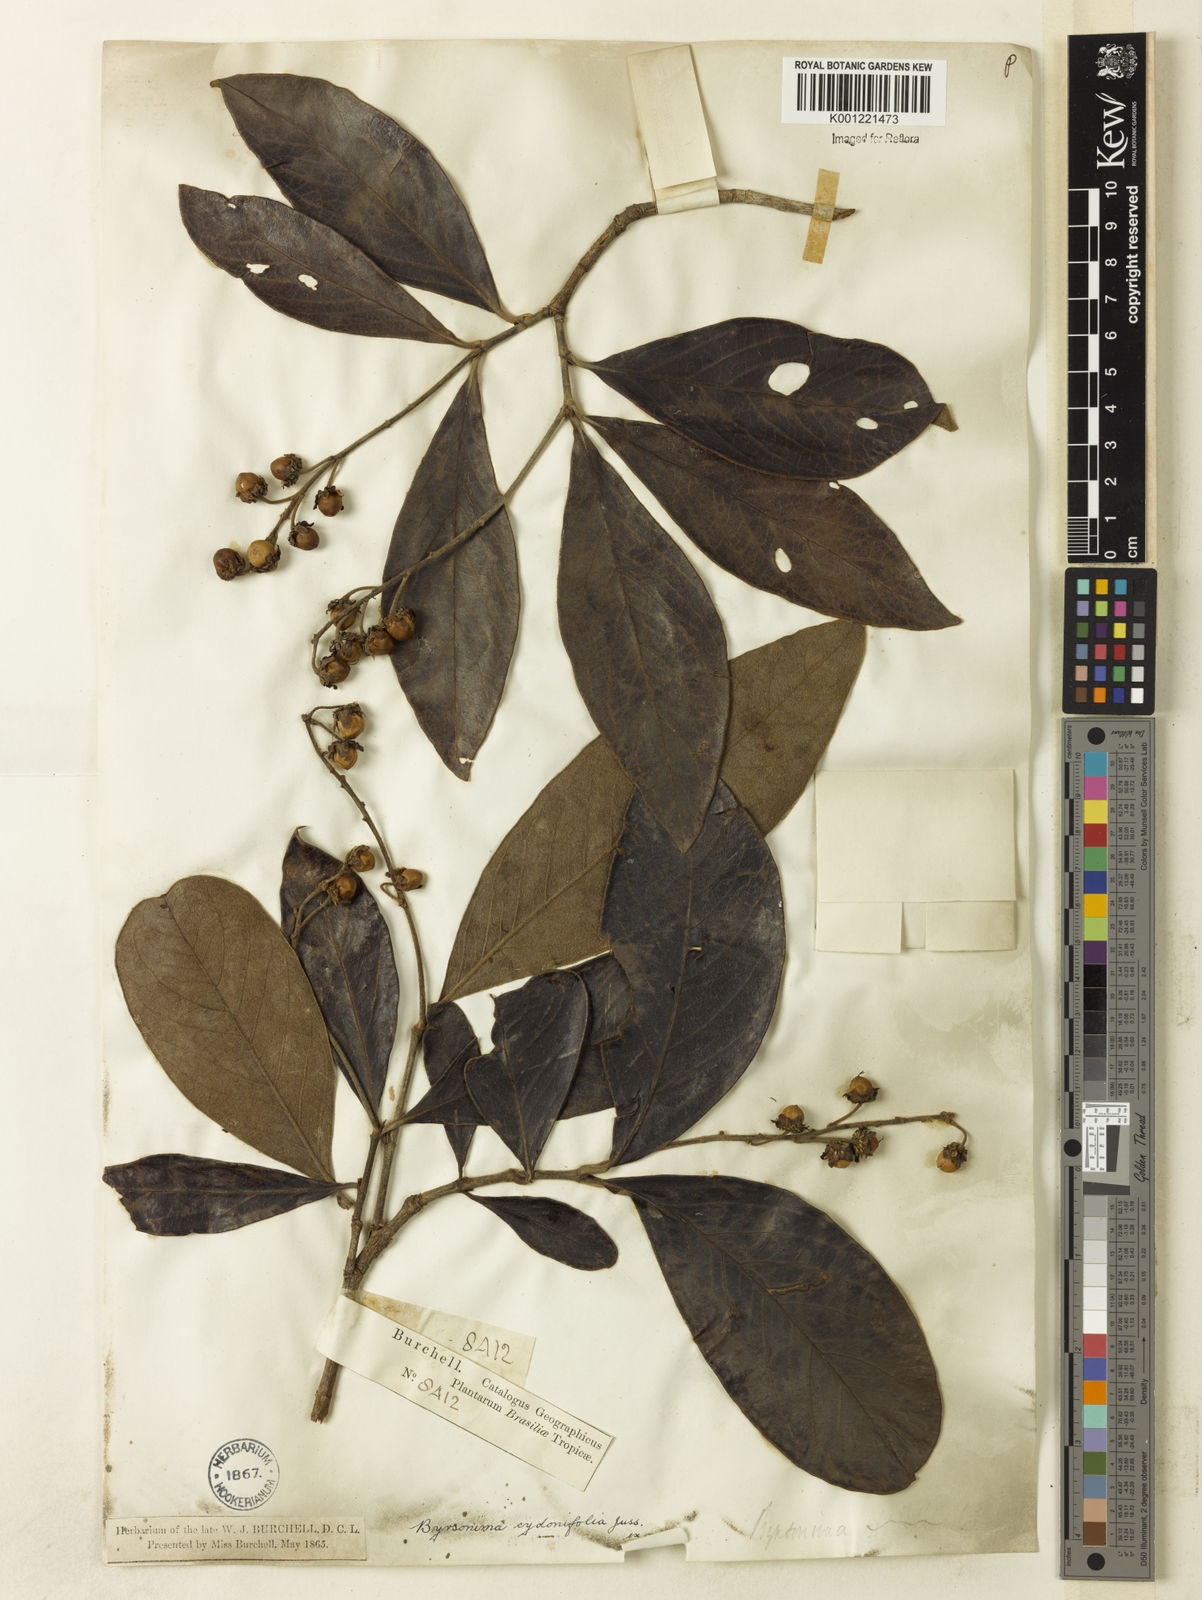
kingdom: Plantae
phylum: Tracheophyta
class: Magnoliopsida
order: Malpighiales
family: Malpighiaceae
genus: Byrsonima
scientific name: Byrsonima cydoniifolia
